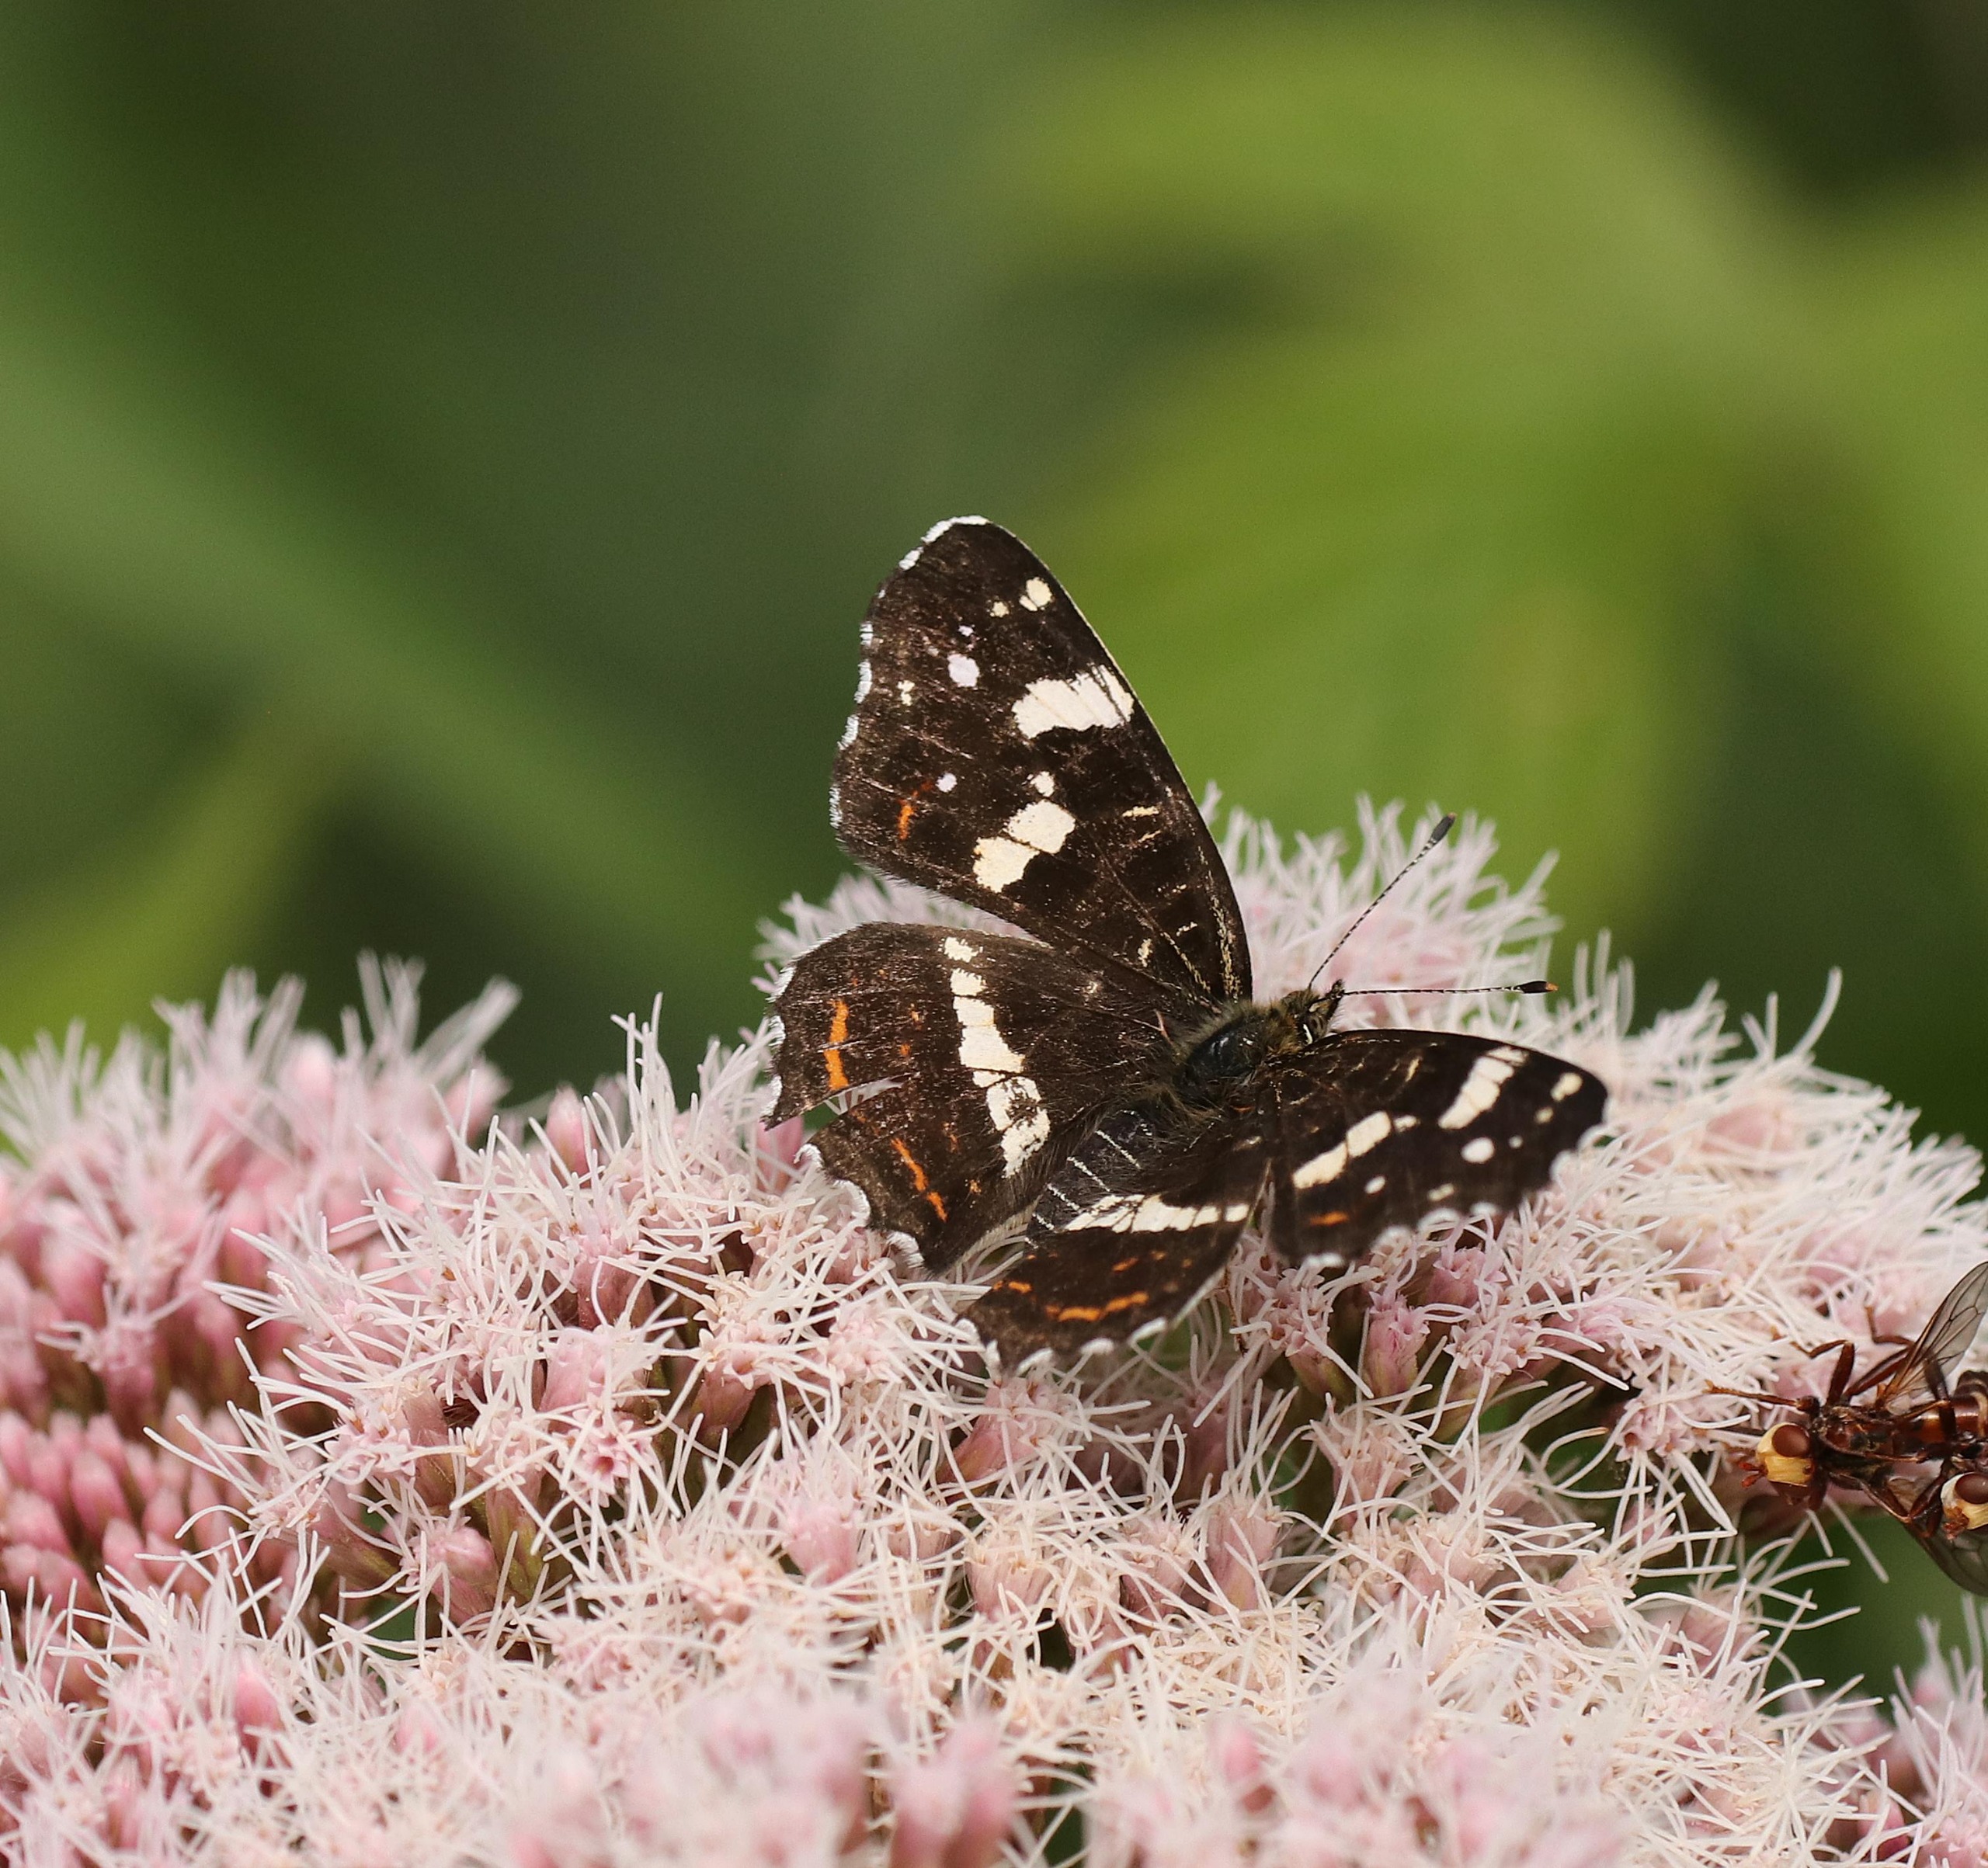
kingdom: Animalia
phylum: Arthropoda
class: Insecta
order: Lepidoptera
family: Nymphalidae
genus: Araschnia
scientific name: Araschnia levana
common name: Nældesommerfugl
